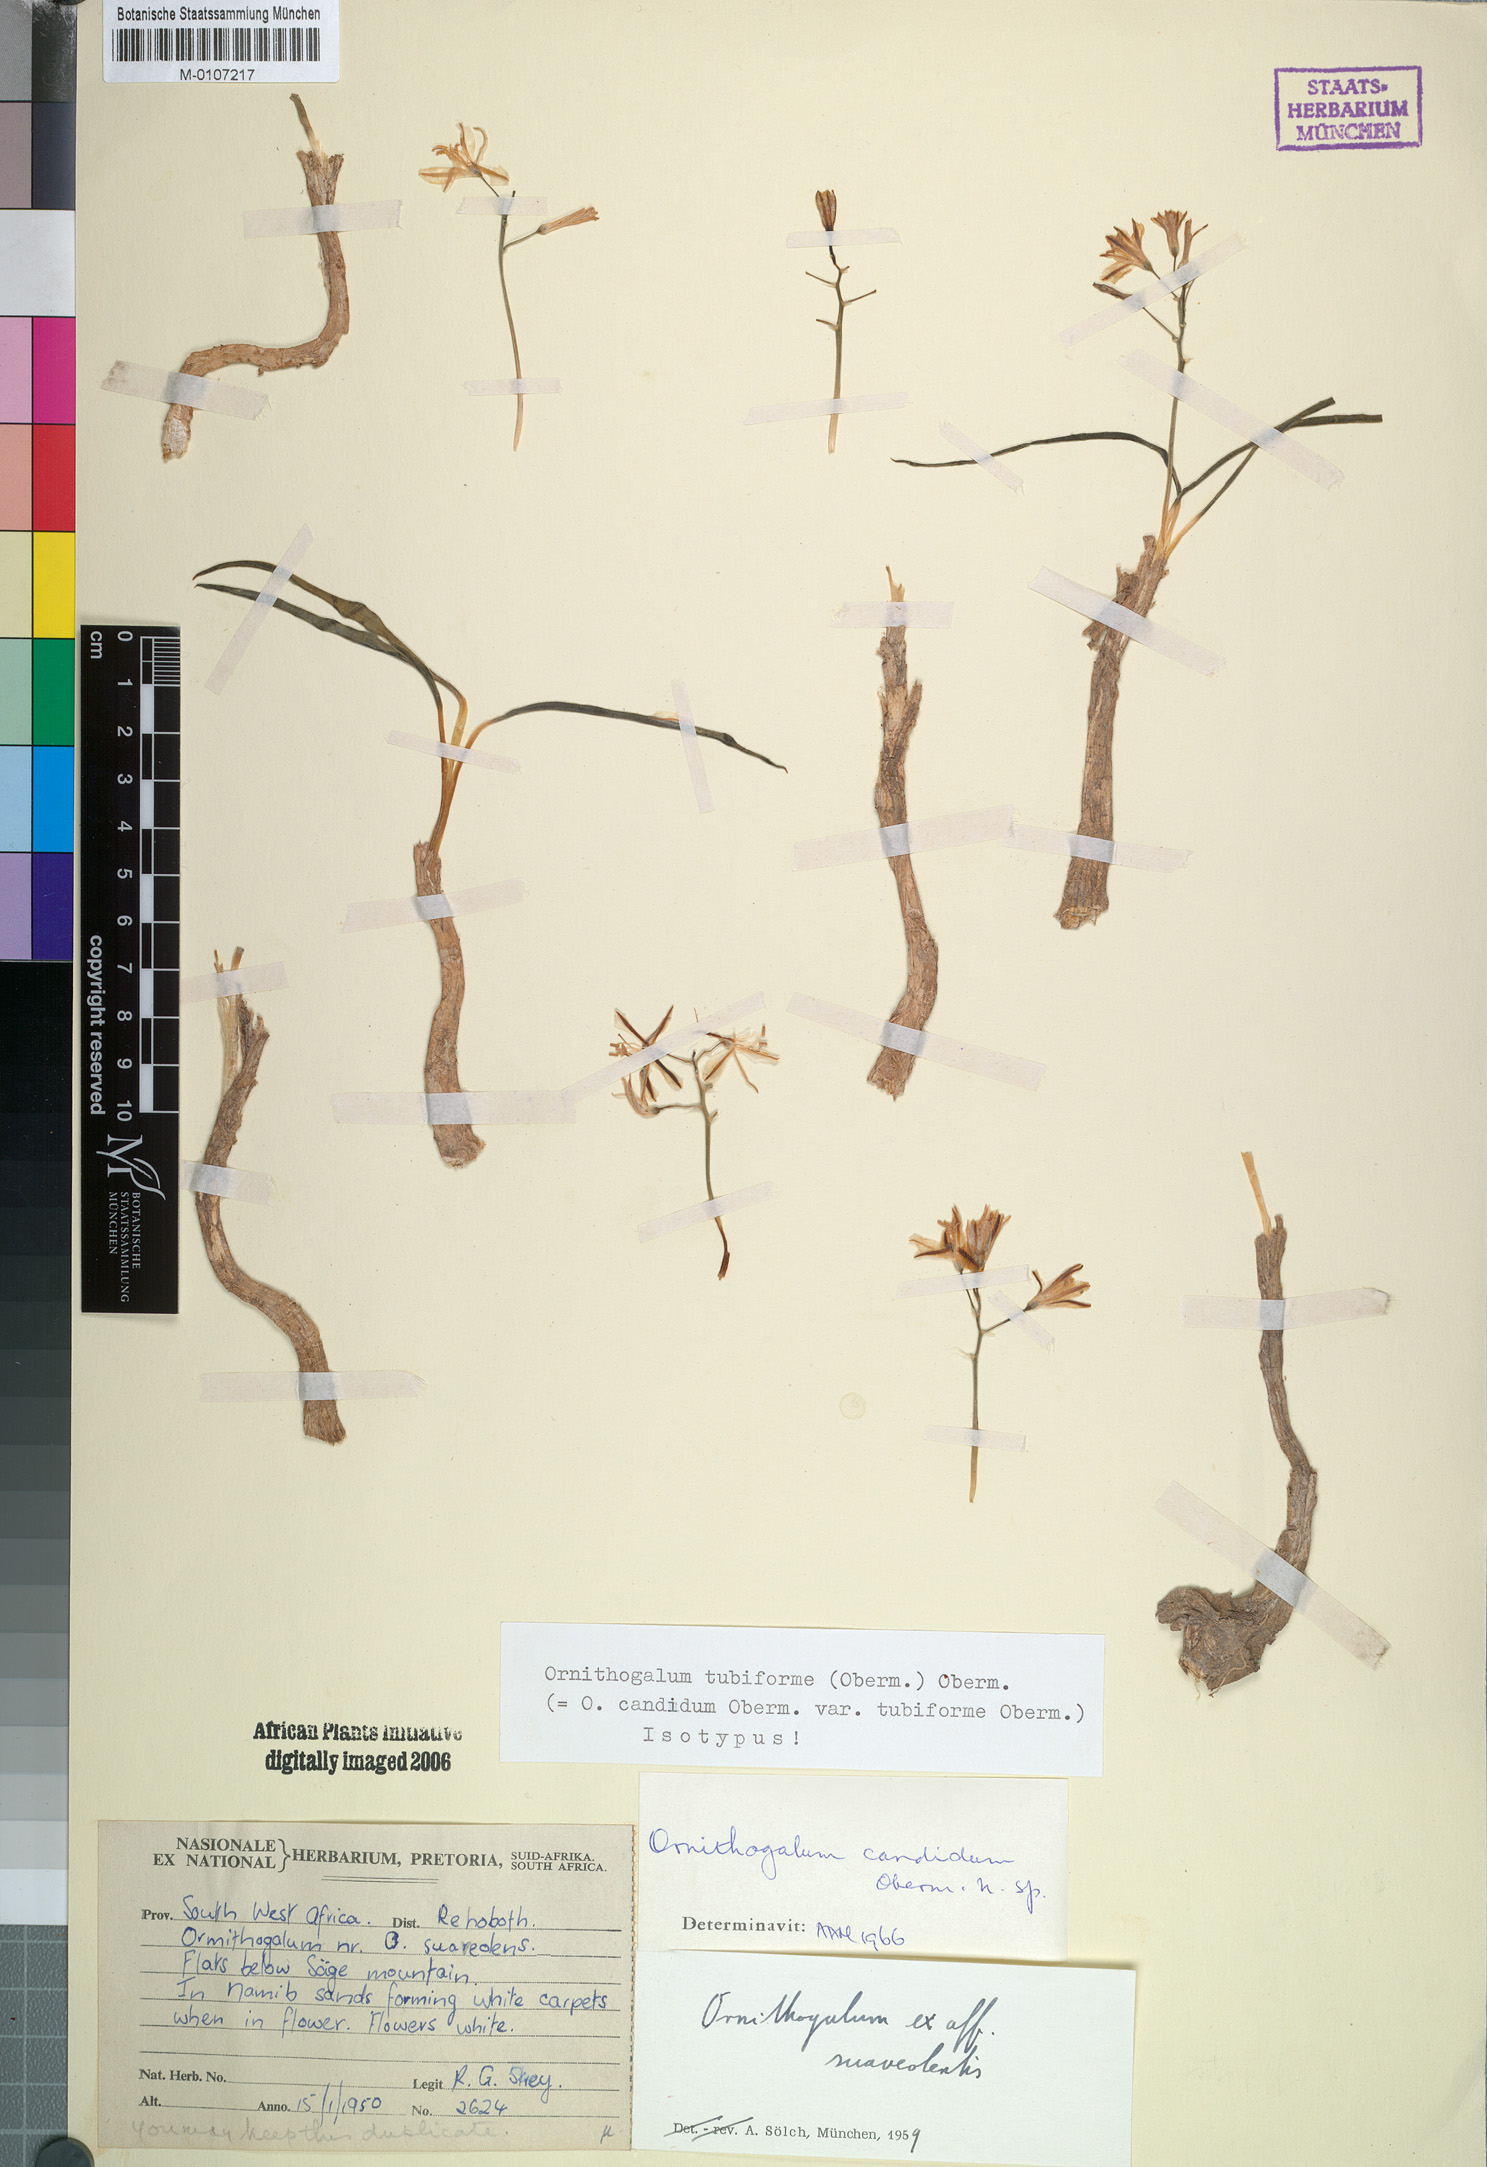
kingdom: Plantae
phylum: Tracheophyta
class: Liliopsida
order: Asparagales
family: Asparagaceae
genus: Albuca
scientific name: Albuca tubiformis
